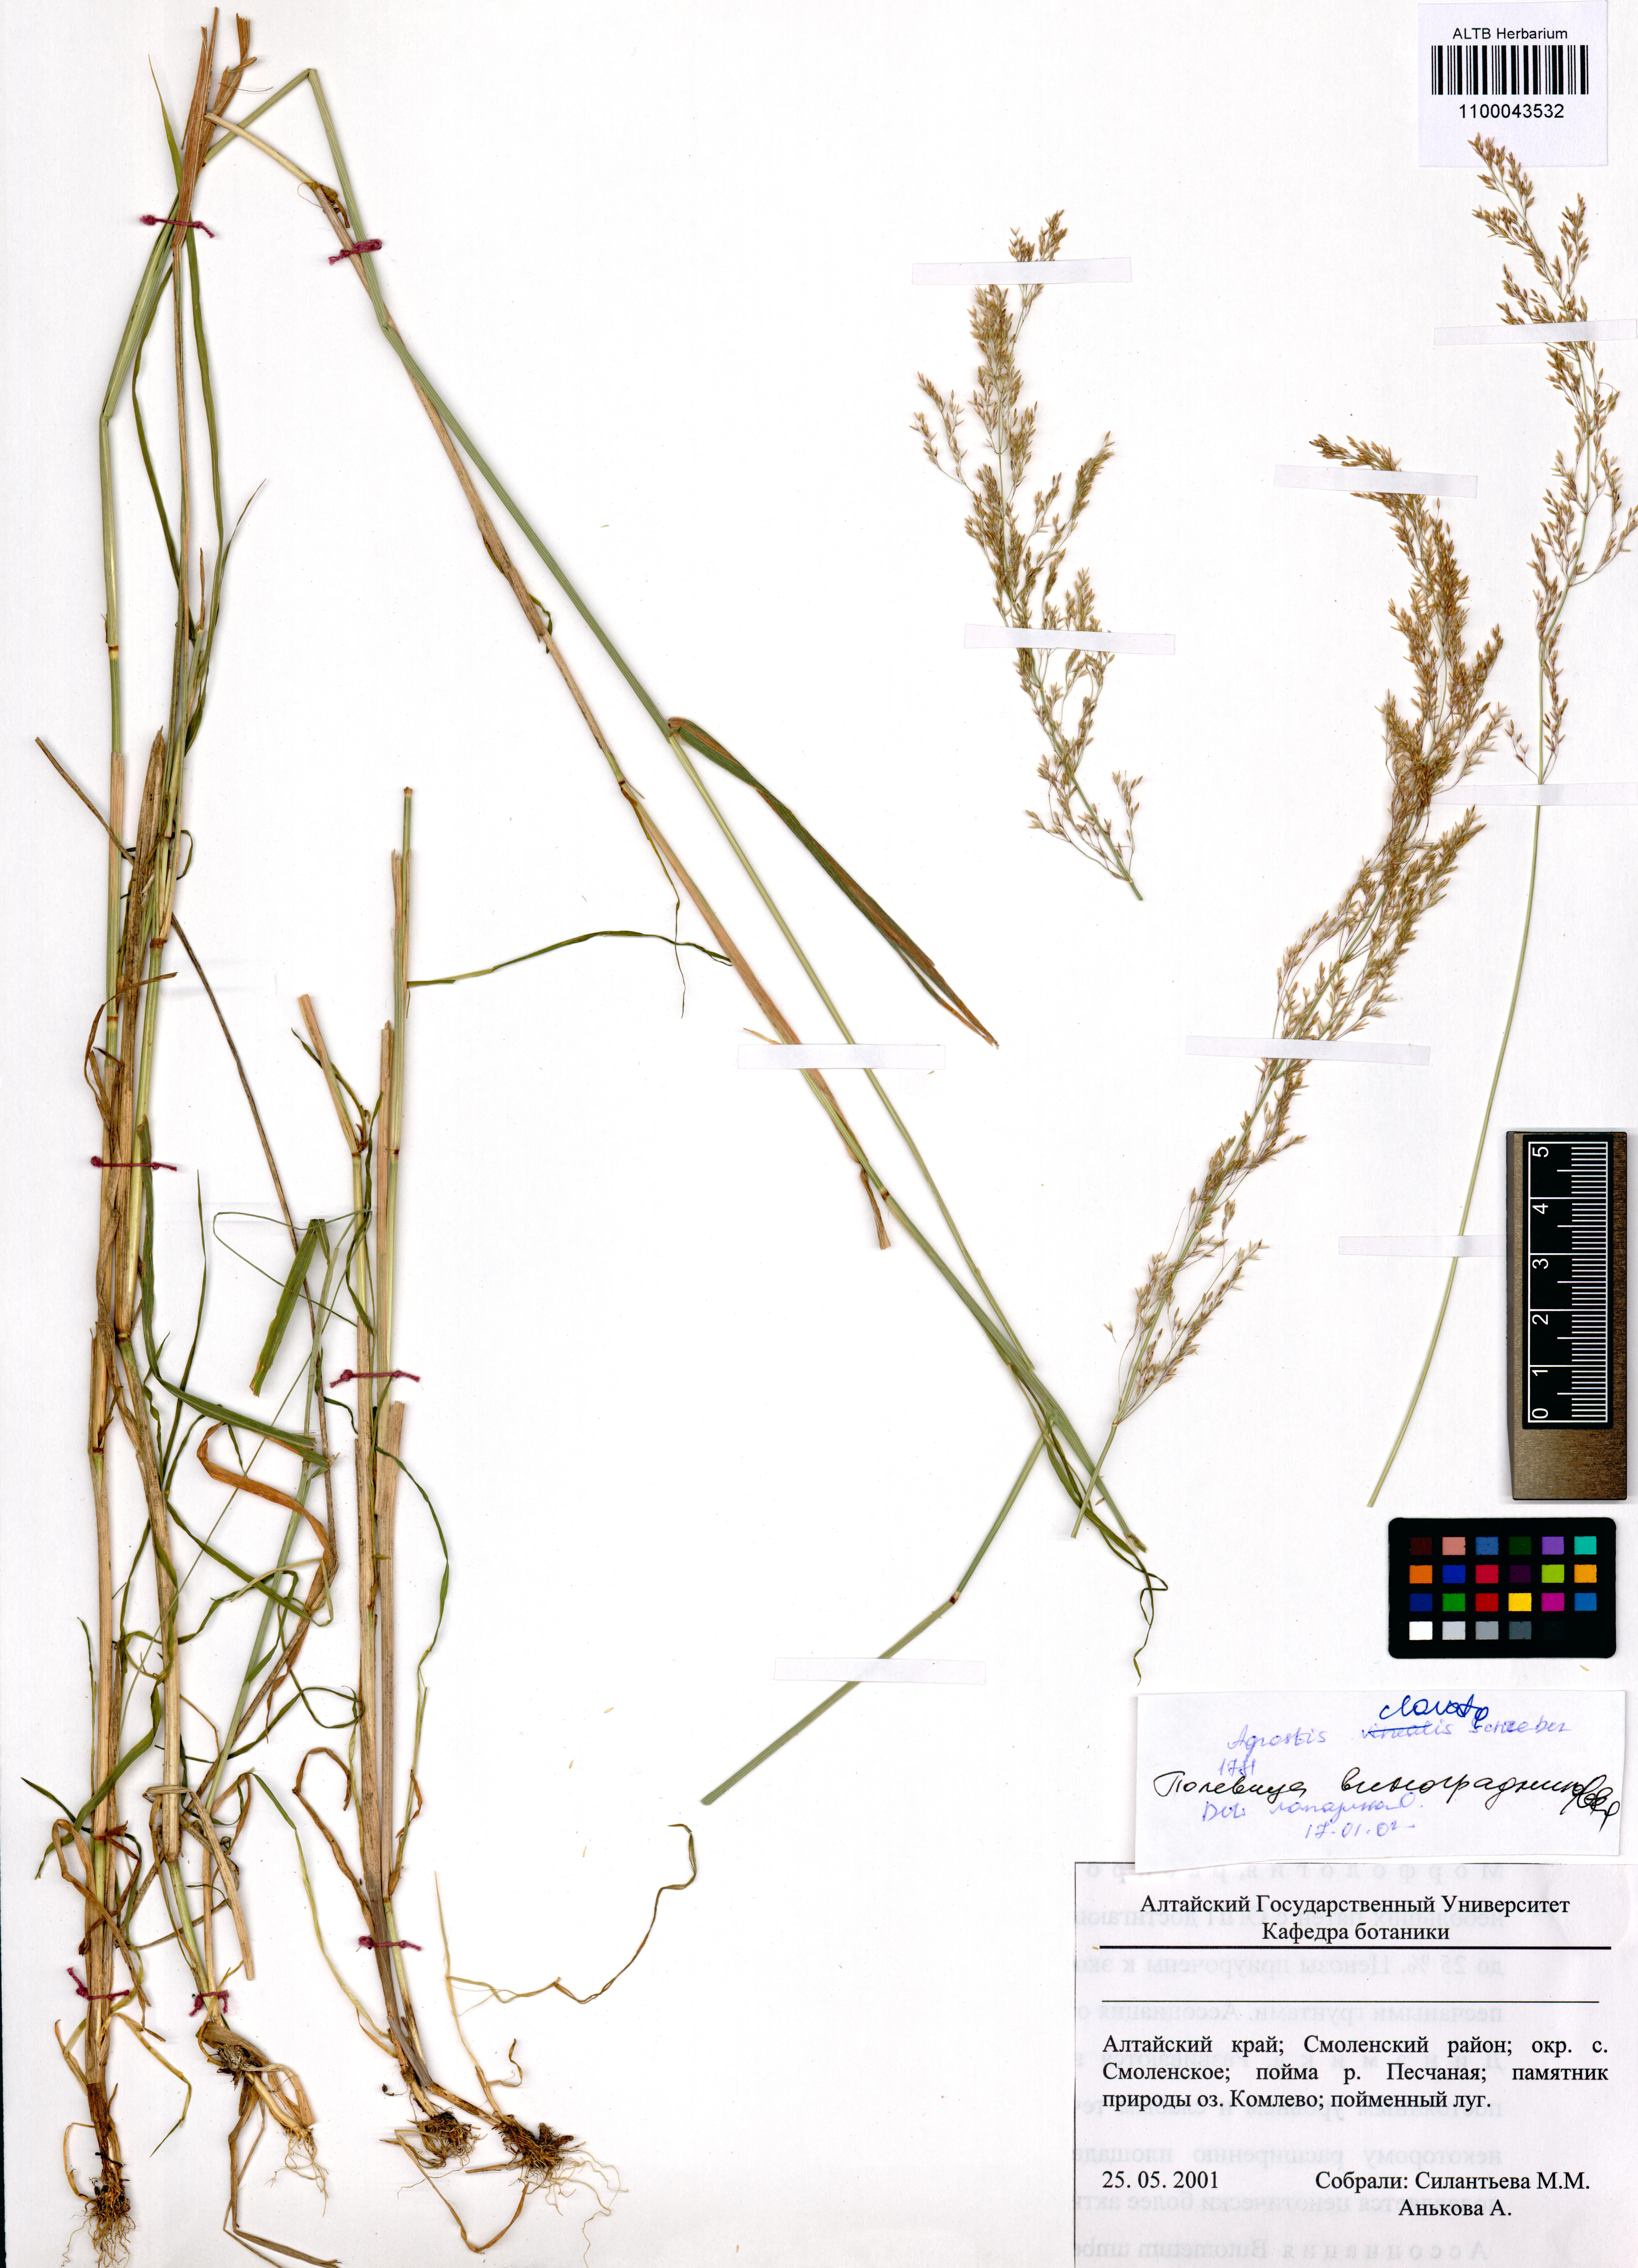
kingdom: Plantae
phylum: Tracheophyta
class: Liliopsida
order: Poales
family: Poaceae
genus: Agrostis
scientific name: Agrostis clavata
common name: Clavate bent
